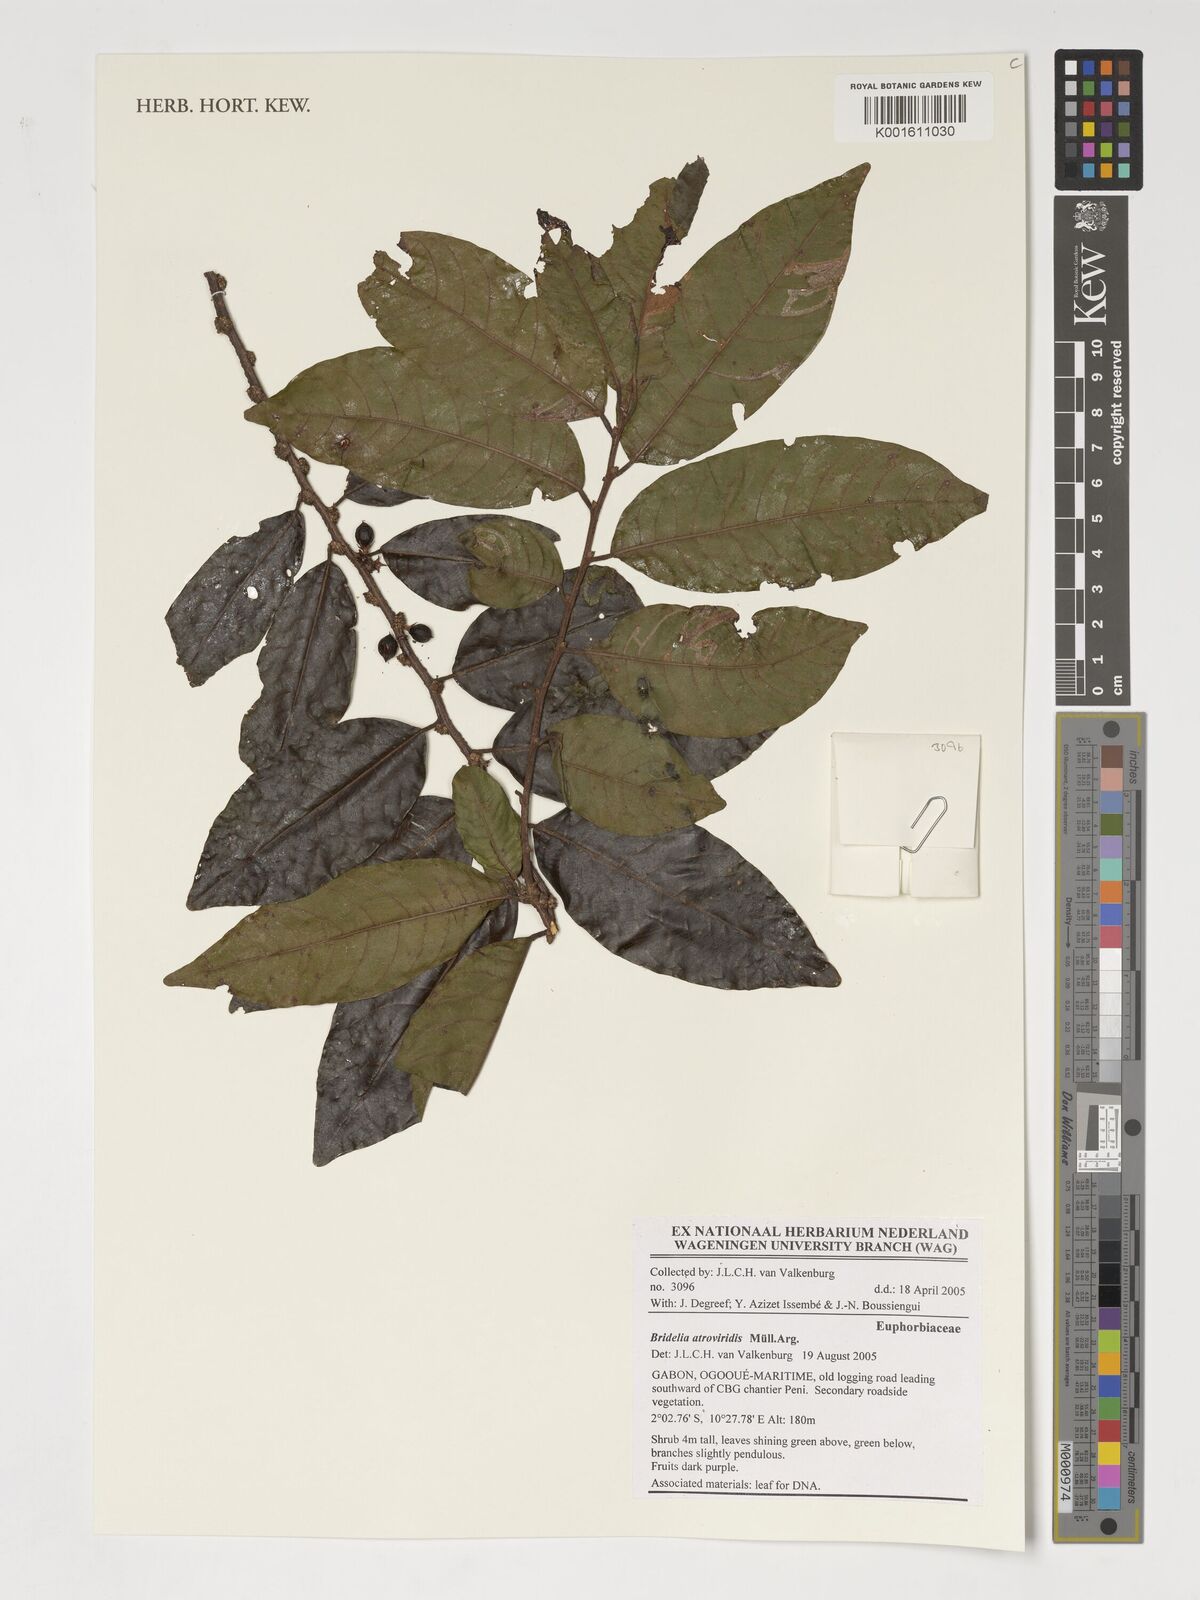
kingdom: Plantae
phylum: Tracheophyta
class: Magnoliopsida
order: Malpighiales
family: Phyllanthaceae
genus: Bridelia
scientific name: Bridelia atroviridis
